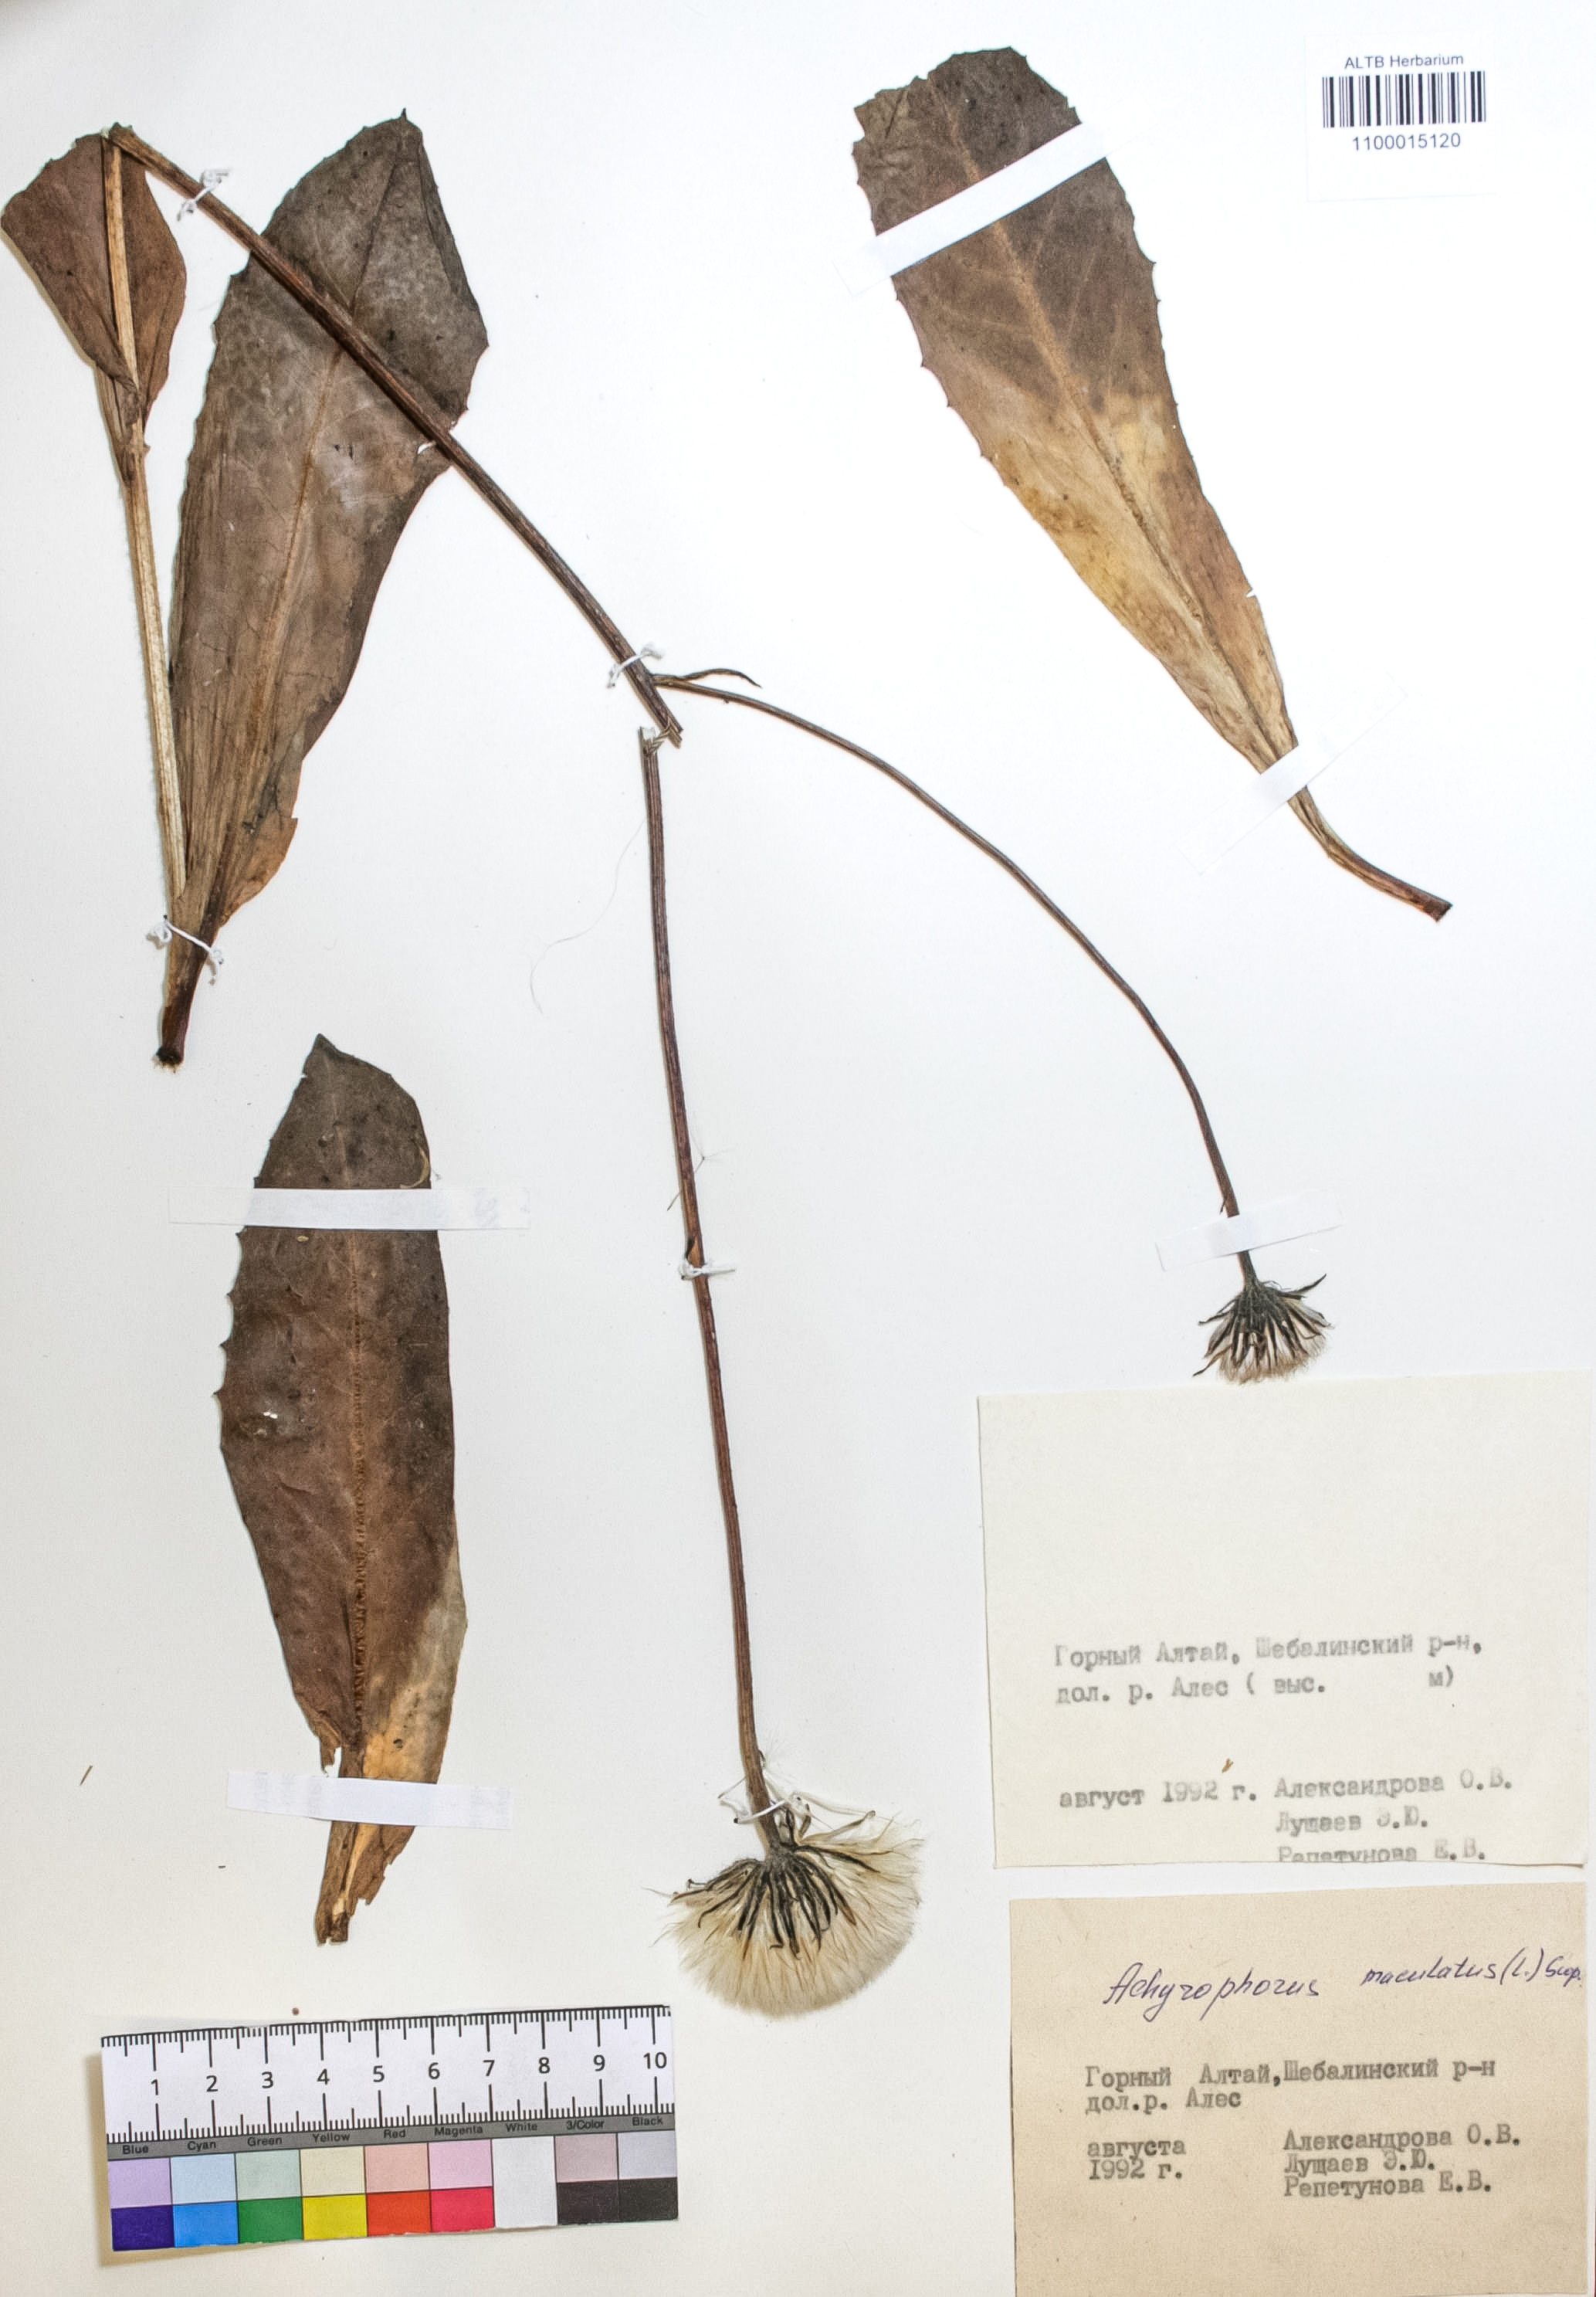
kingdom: Plantae
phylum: Tracheophyta
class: Magnoliopsida
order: Asterales
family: Asteraceae
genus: Trommsdorffia
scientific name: Trommsdorffia maculata
